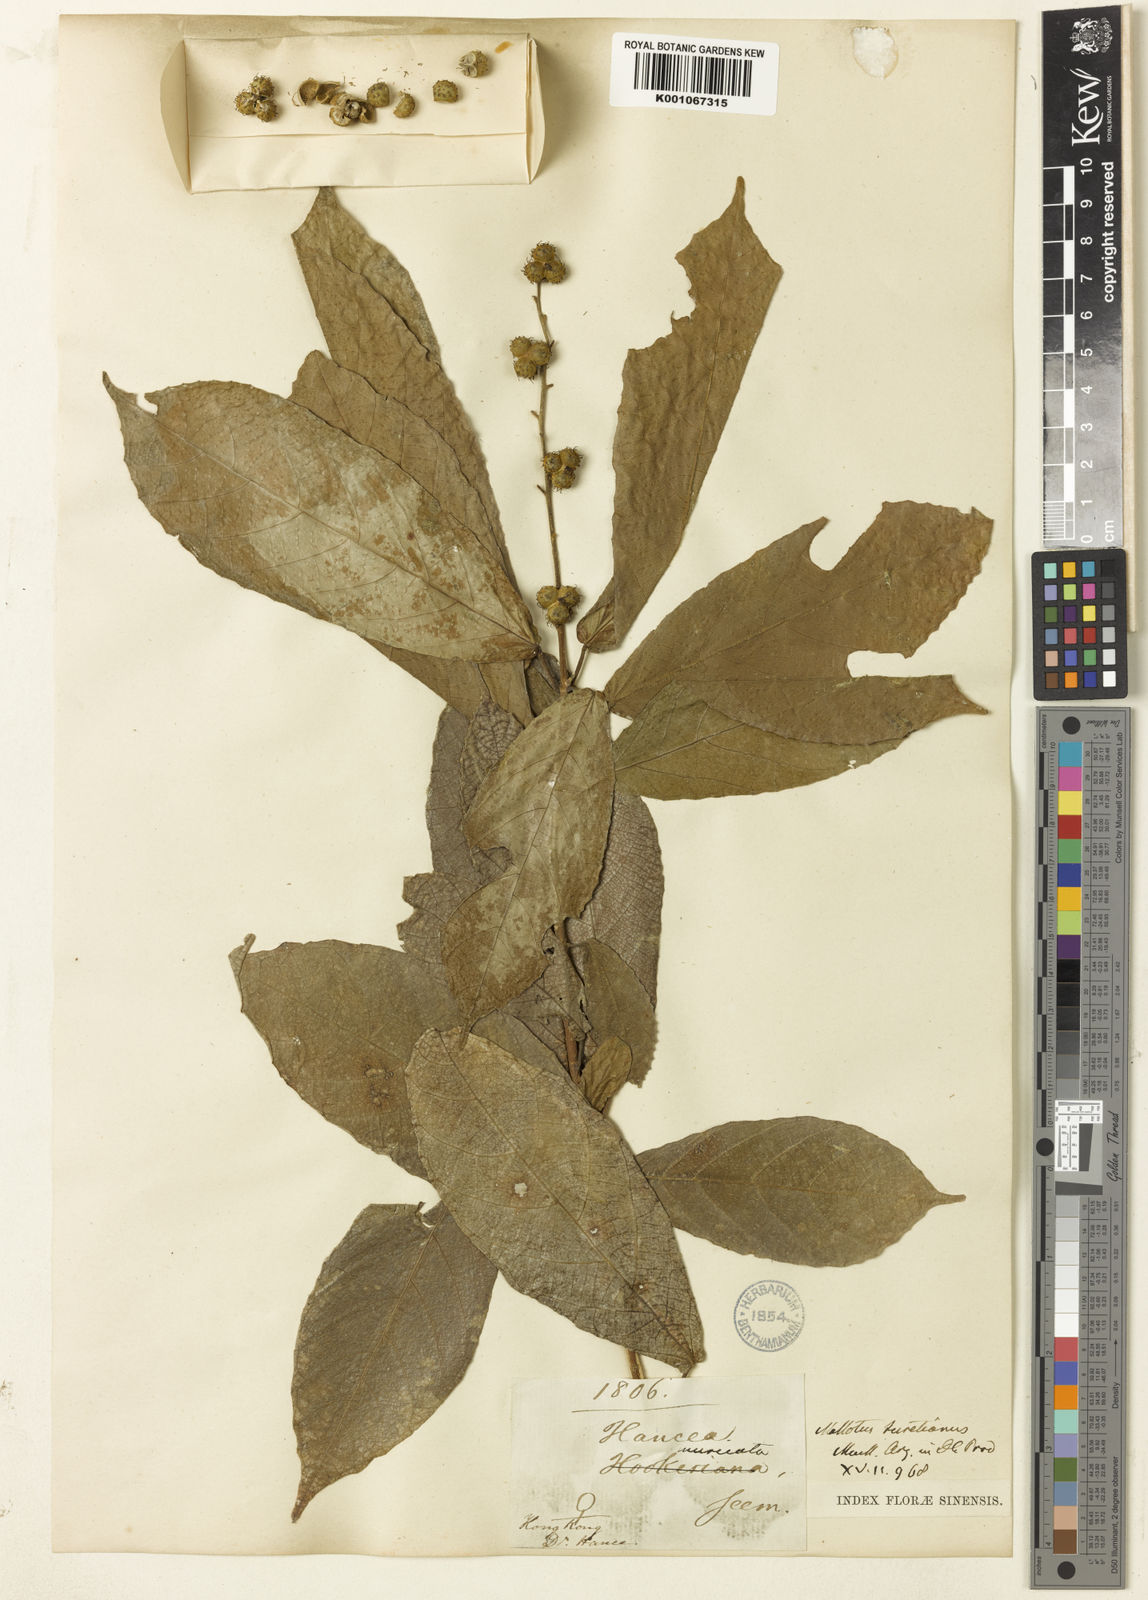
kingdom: Plantae
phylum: Tracheophyta
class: Magnoliopsida
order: Malpighiales
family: Euphorbiaceae
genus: Mallotus
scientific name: Mallotus peltatus
